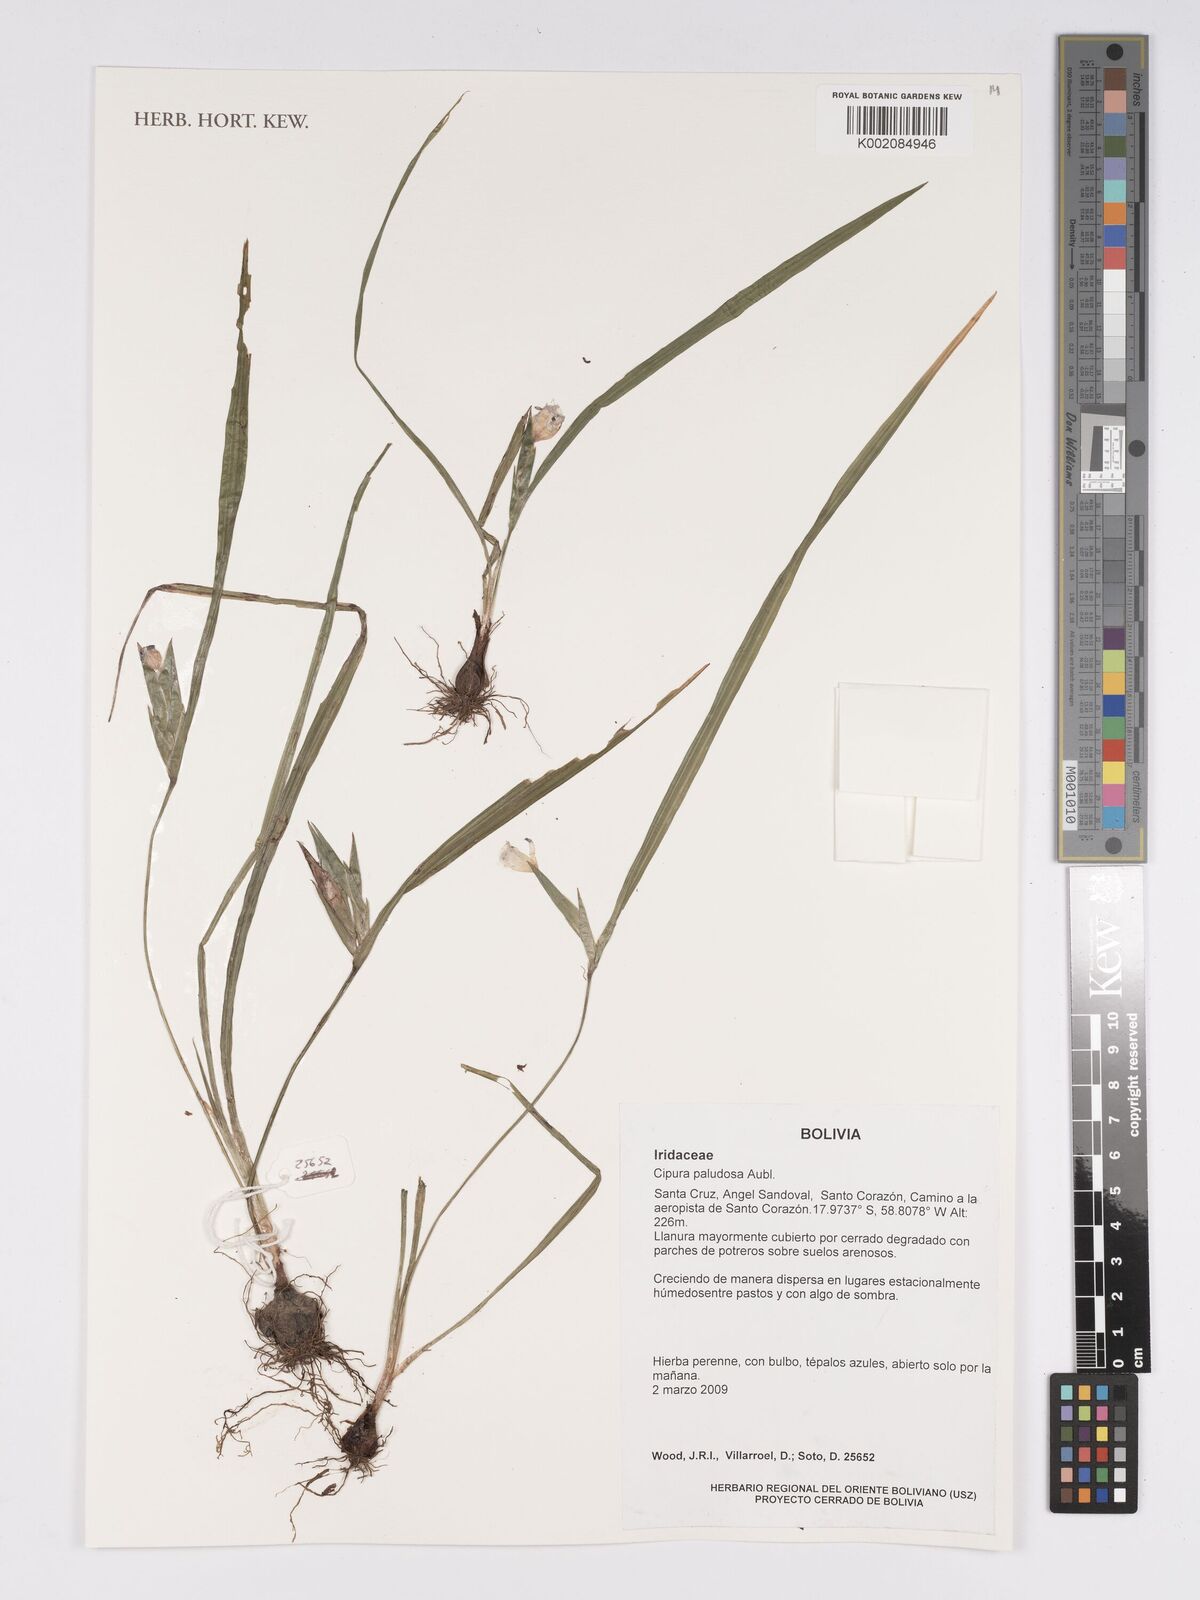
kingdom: Plantae
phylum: Tracheophyta
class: Liliopsida
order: Asparagales
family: Iridaceae
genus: Cipura
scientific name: Cipura paludosa
